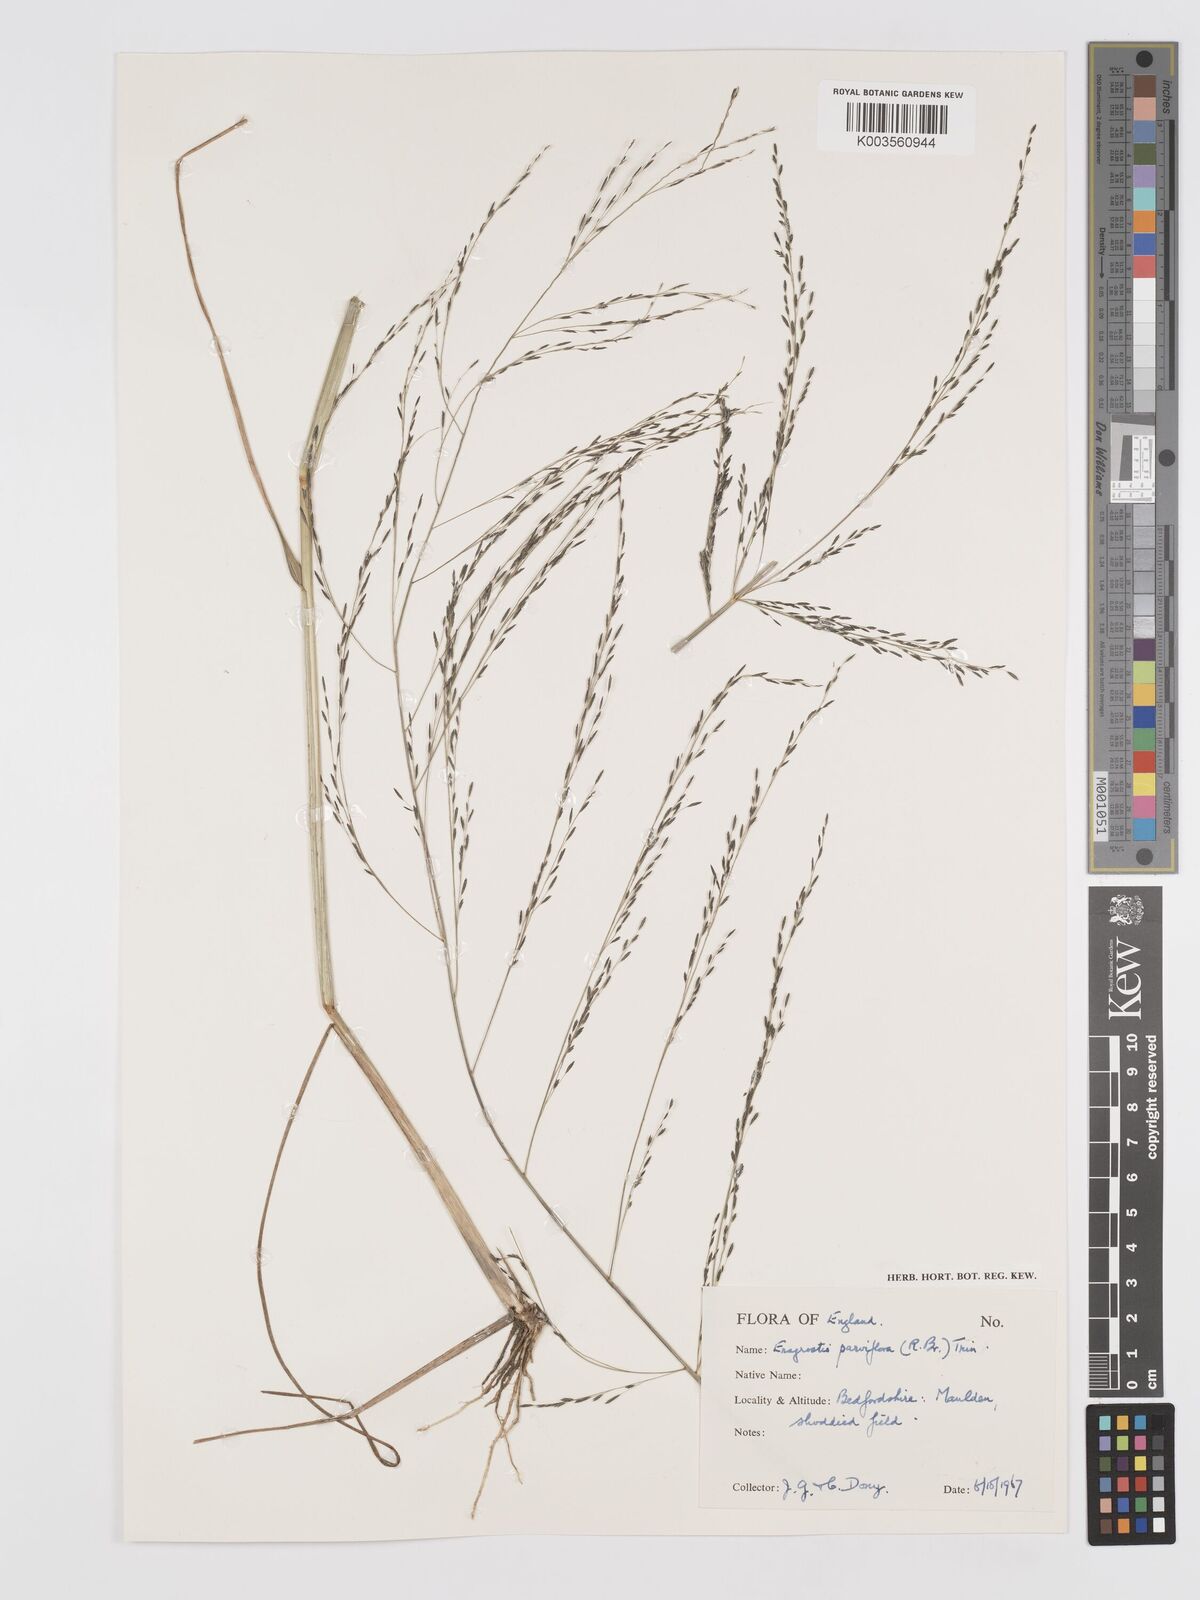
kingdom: Plantae
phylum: Tracheophyta
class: Liliopsida
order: Poales
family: Poaceae
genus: Eragrostis
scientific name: Eragrostis parviflora
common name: Weeping love-grass
